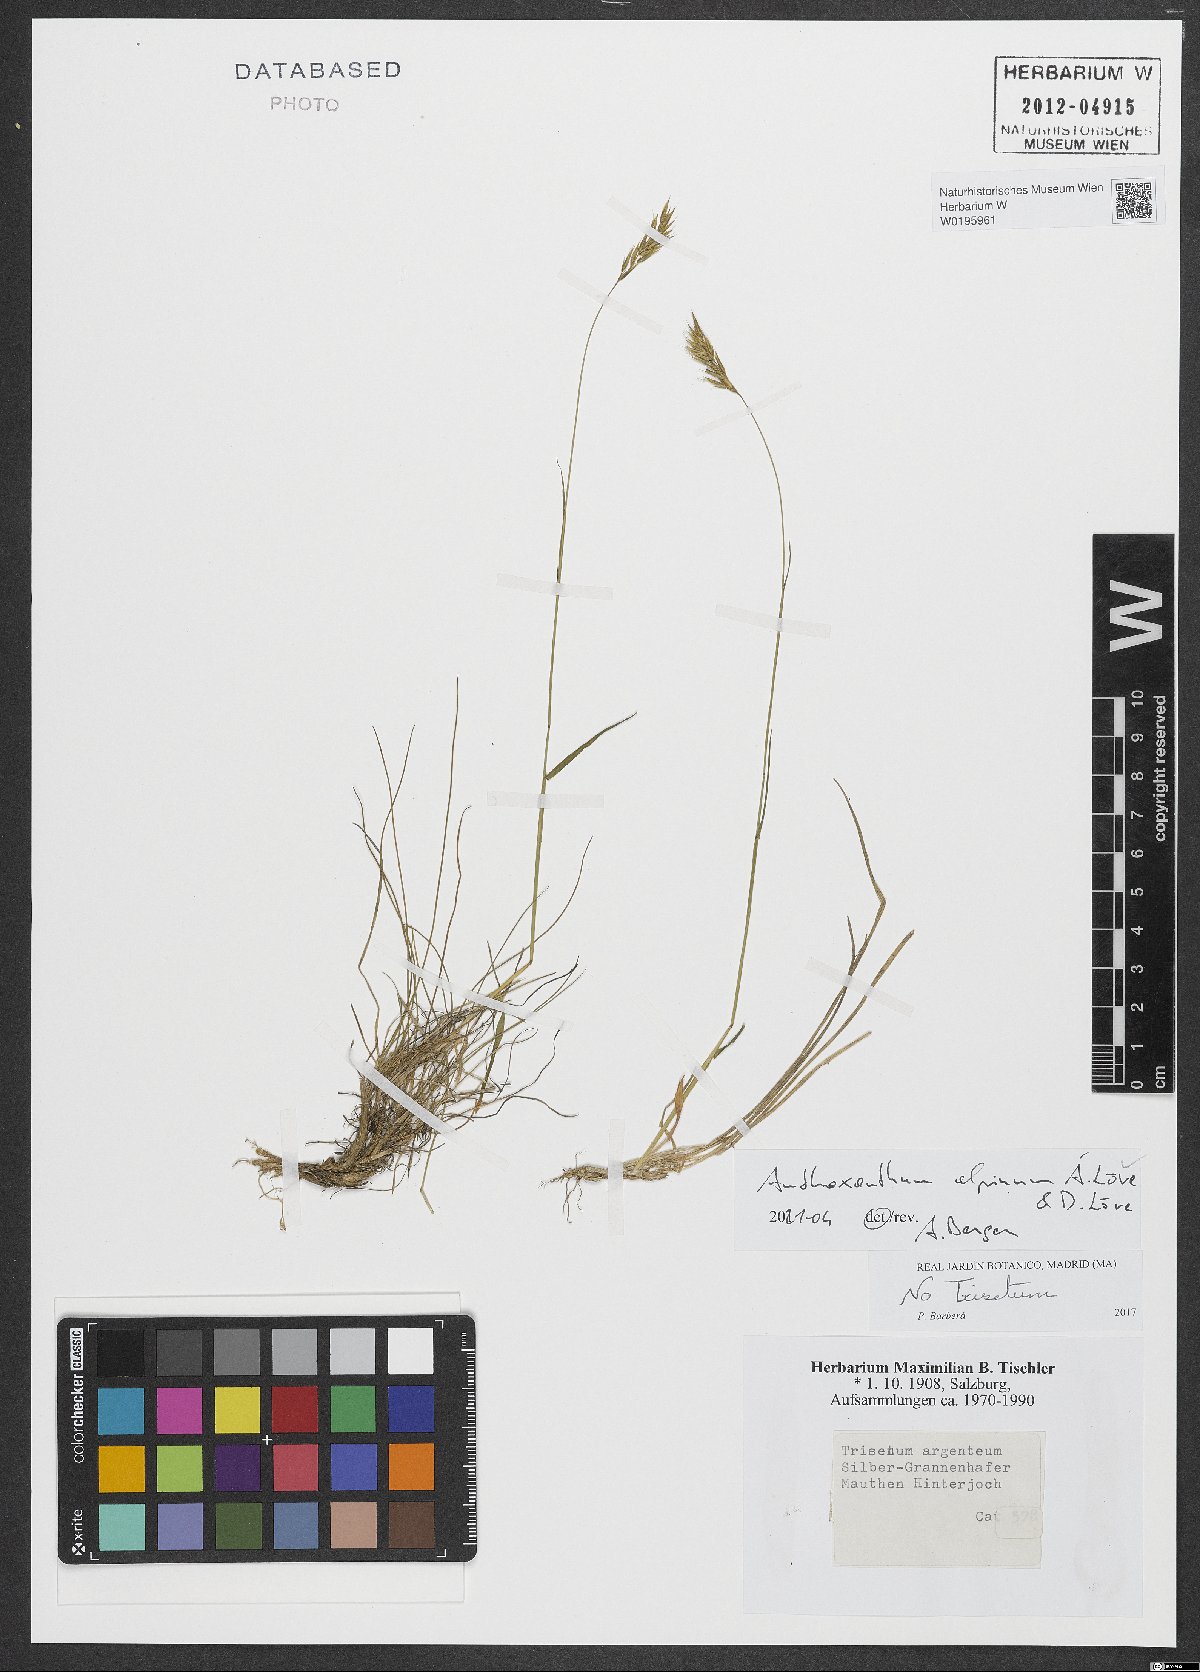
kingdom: Plantae
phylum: Tracheophyta
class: Liliopsida
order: Poales
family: Poaceae
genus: Anthoxanthum
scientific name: Anthoxanthum nipponicum
